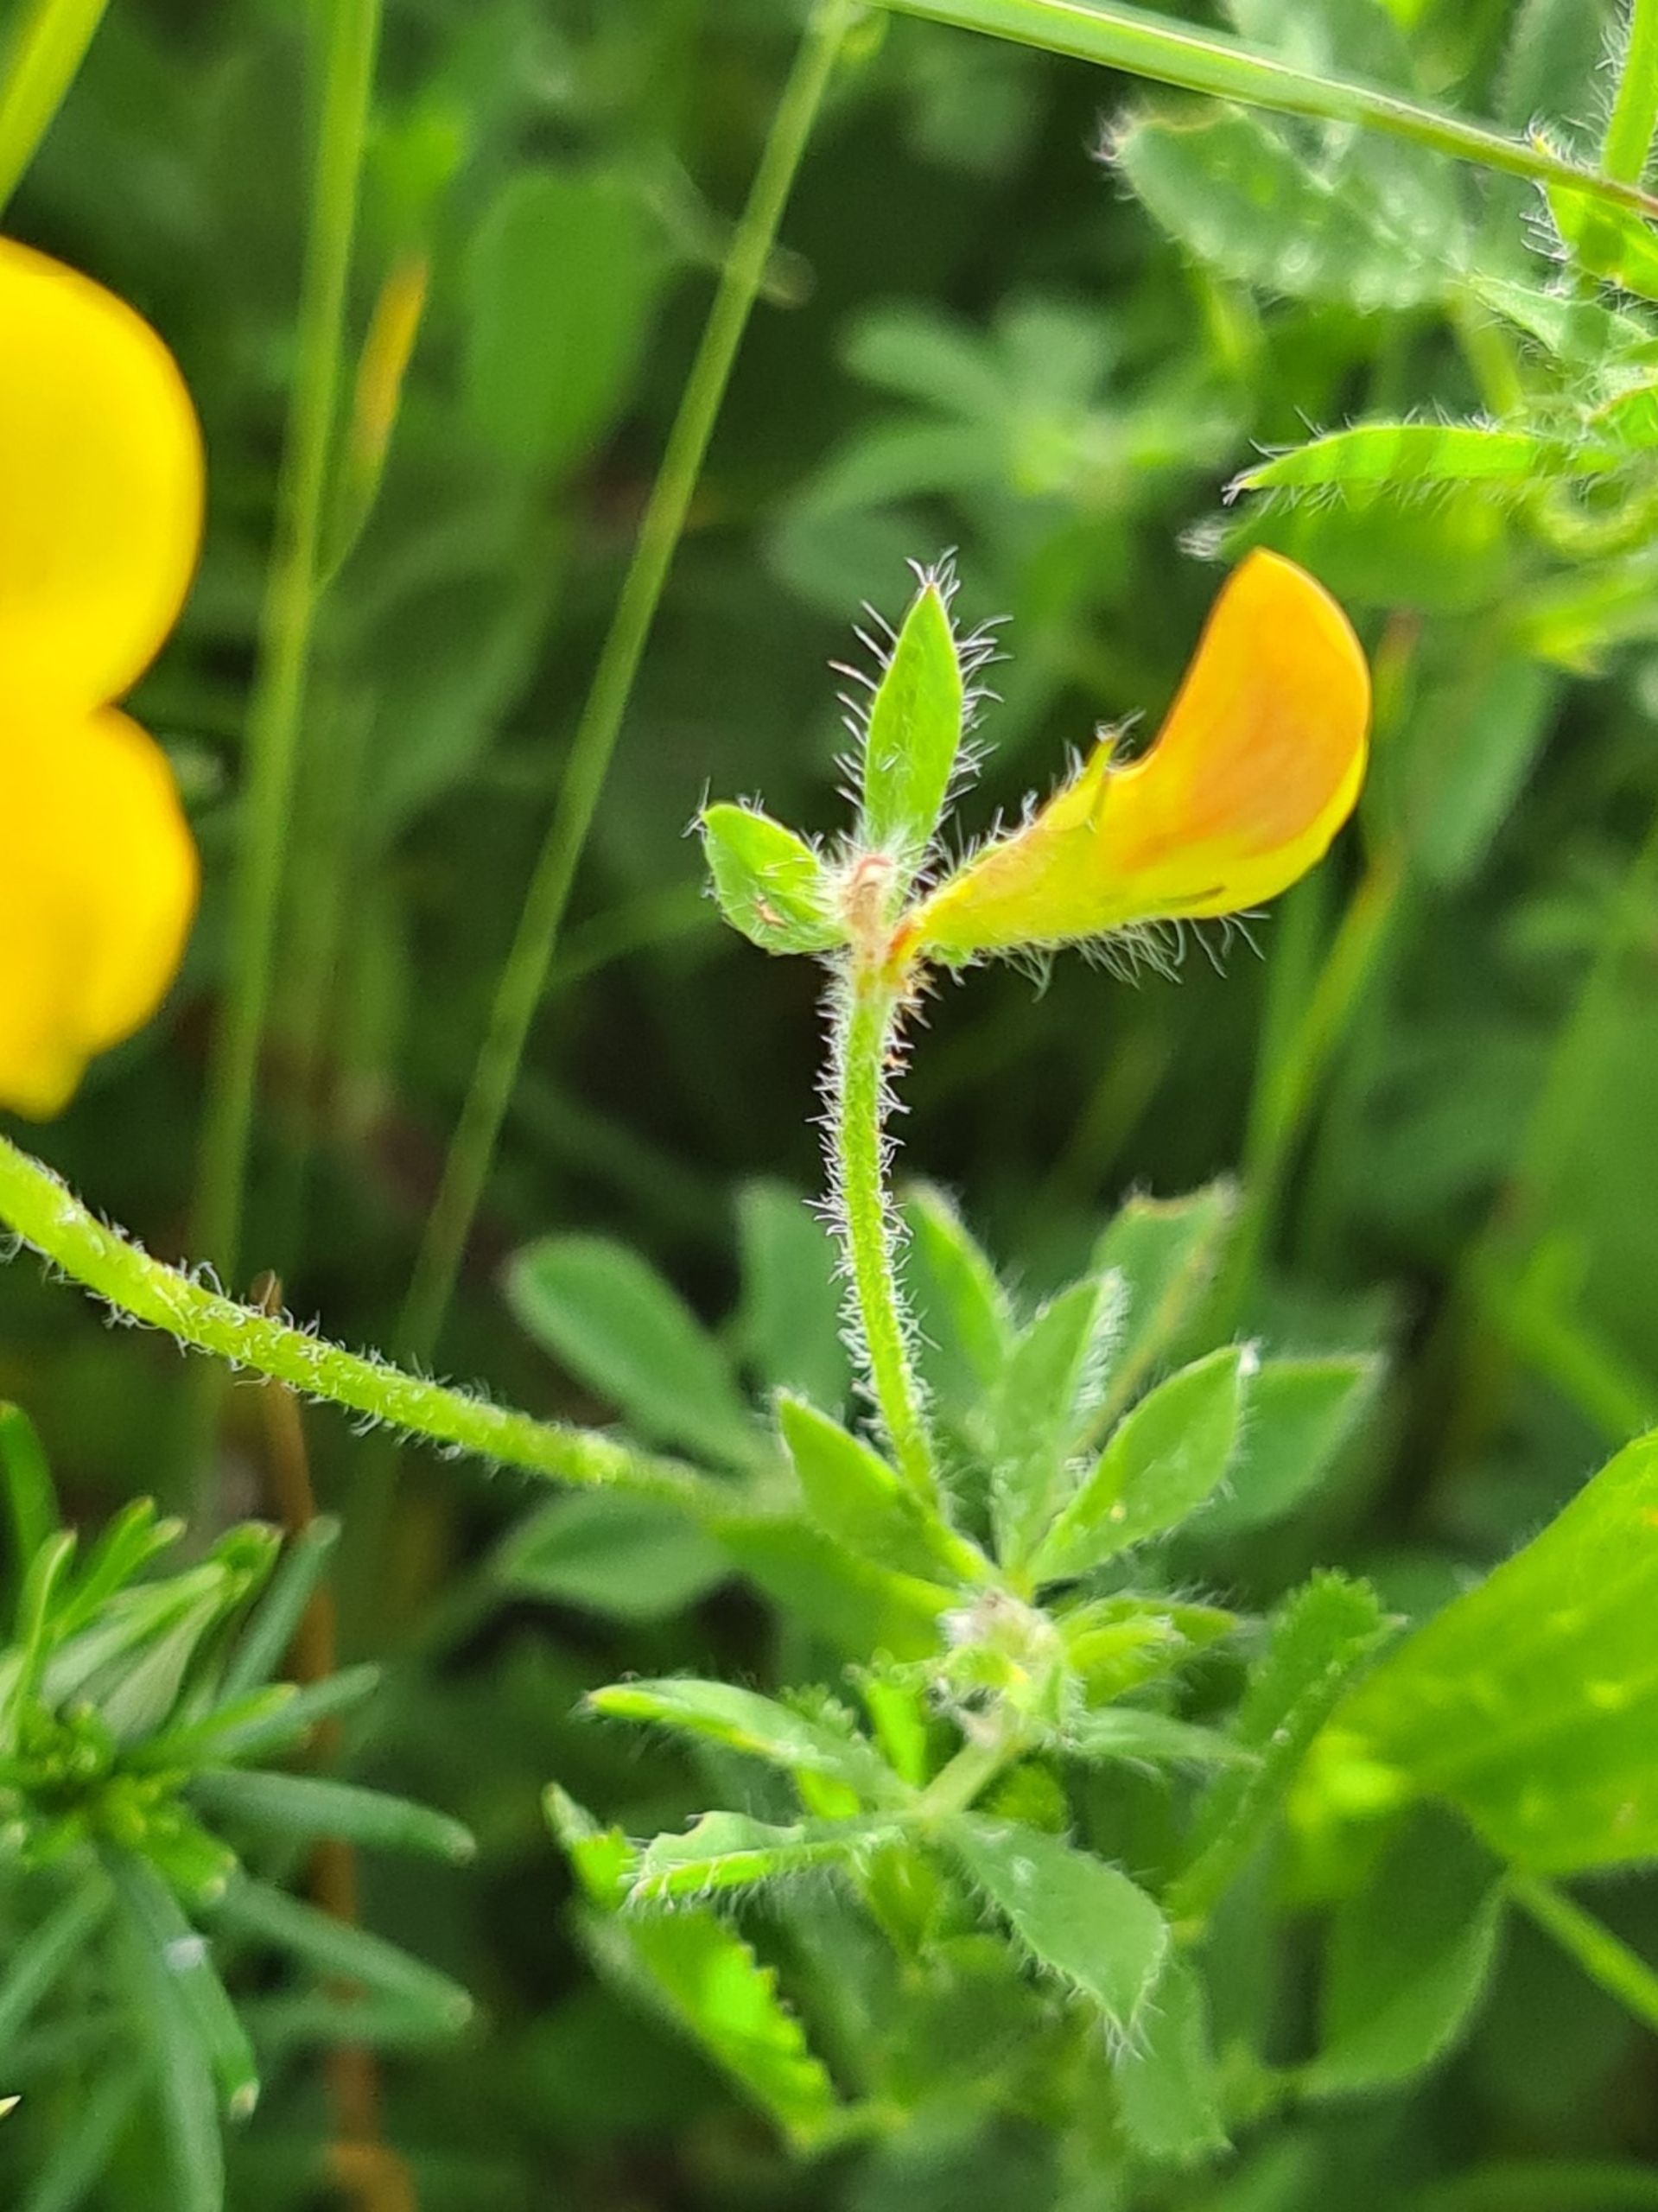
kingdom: Plantae
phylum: Tracheophyta
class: Magnoliopsida
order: Fabales
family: Fabaceae
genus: Lotus
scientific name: Lotus corniculatus
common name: Almindelig kællingetand
